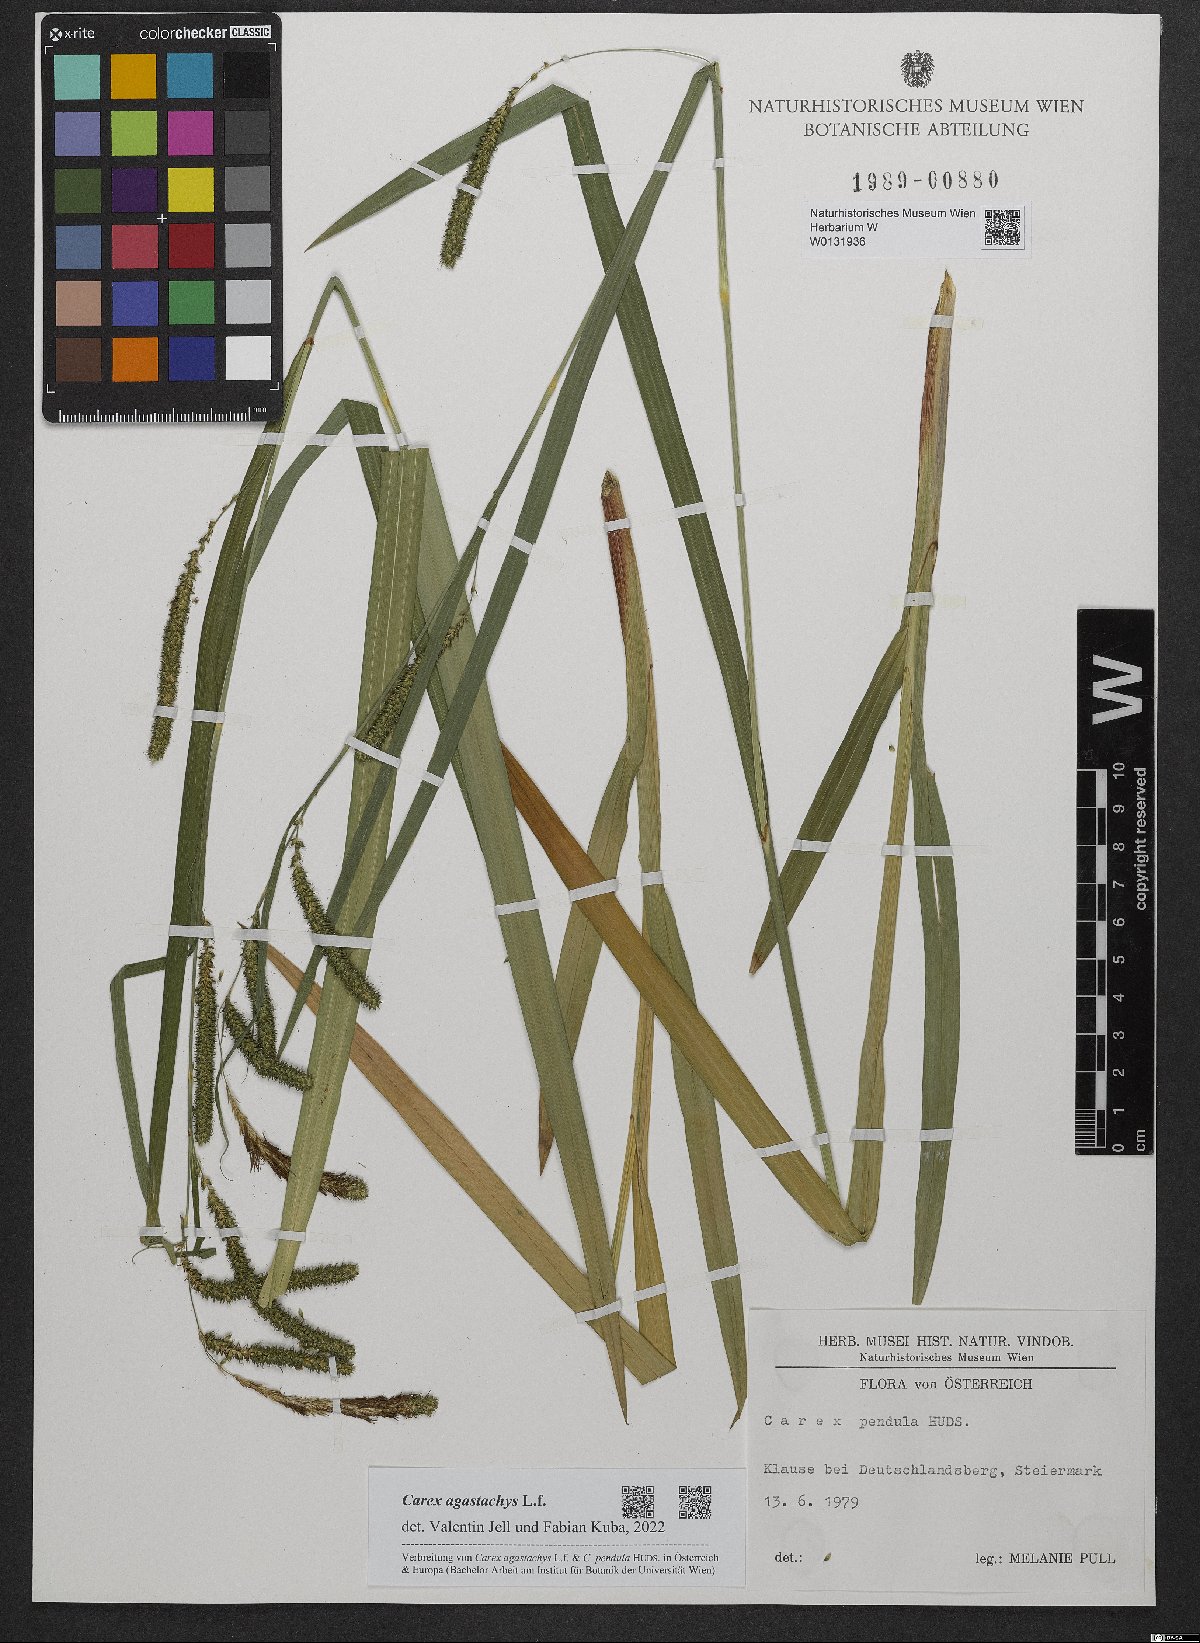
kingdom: Plantae
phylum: Tracheophyta
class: Liliopsida
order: Poales
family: Cyperaceae
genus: Carex
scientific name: Carex agastachys
